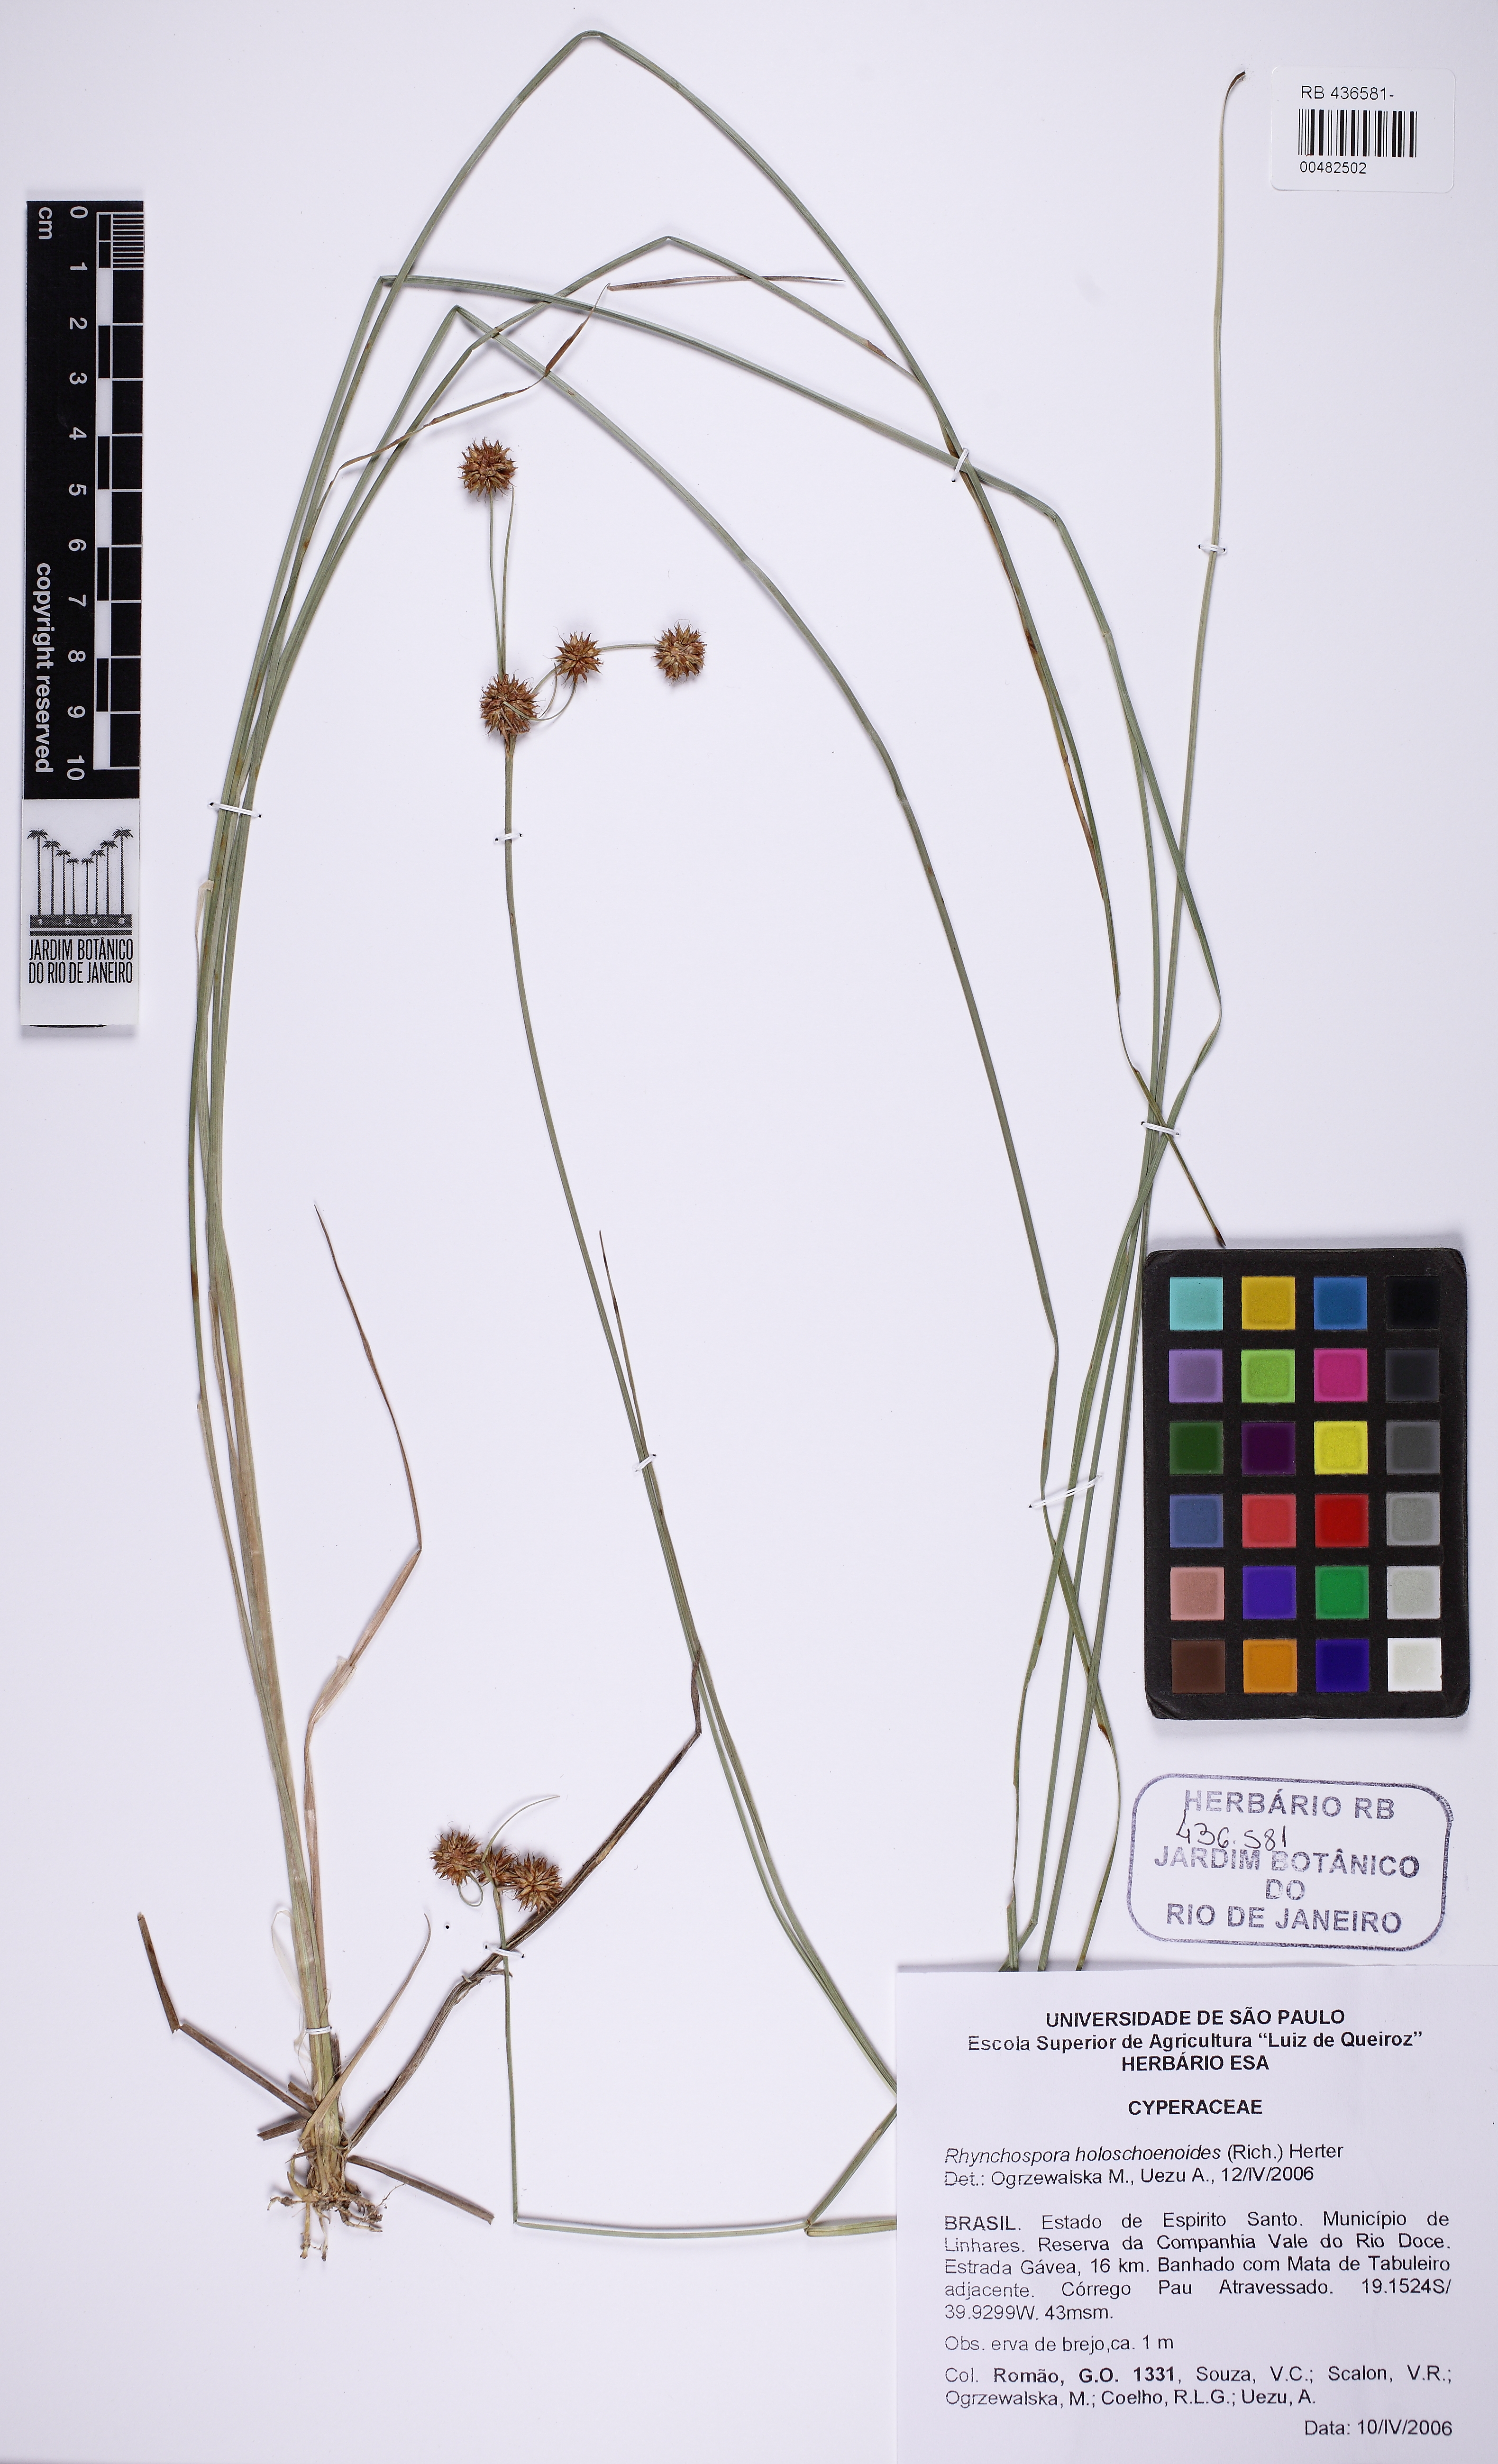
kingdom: Plantae
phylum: Tracheophyta
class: Liliopsida
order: Poales
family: Cyperaceae
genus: Rhynchospora
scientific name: Rhynchospora holoschoenoides
